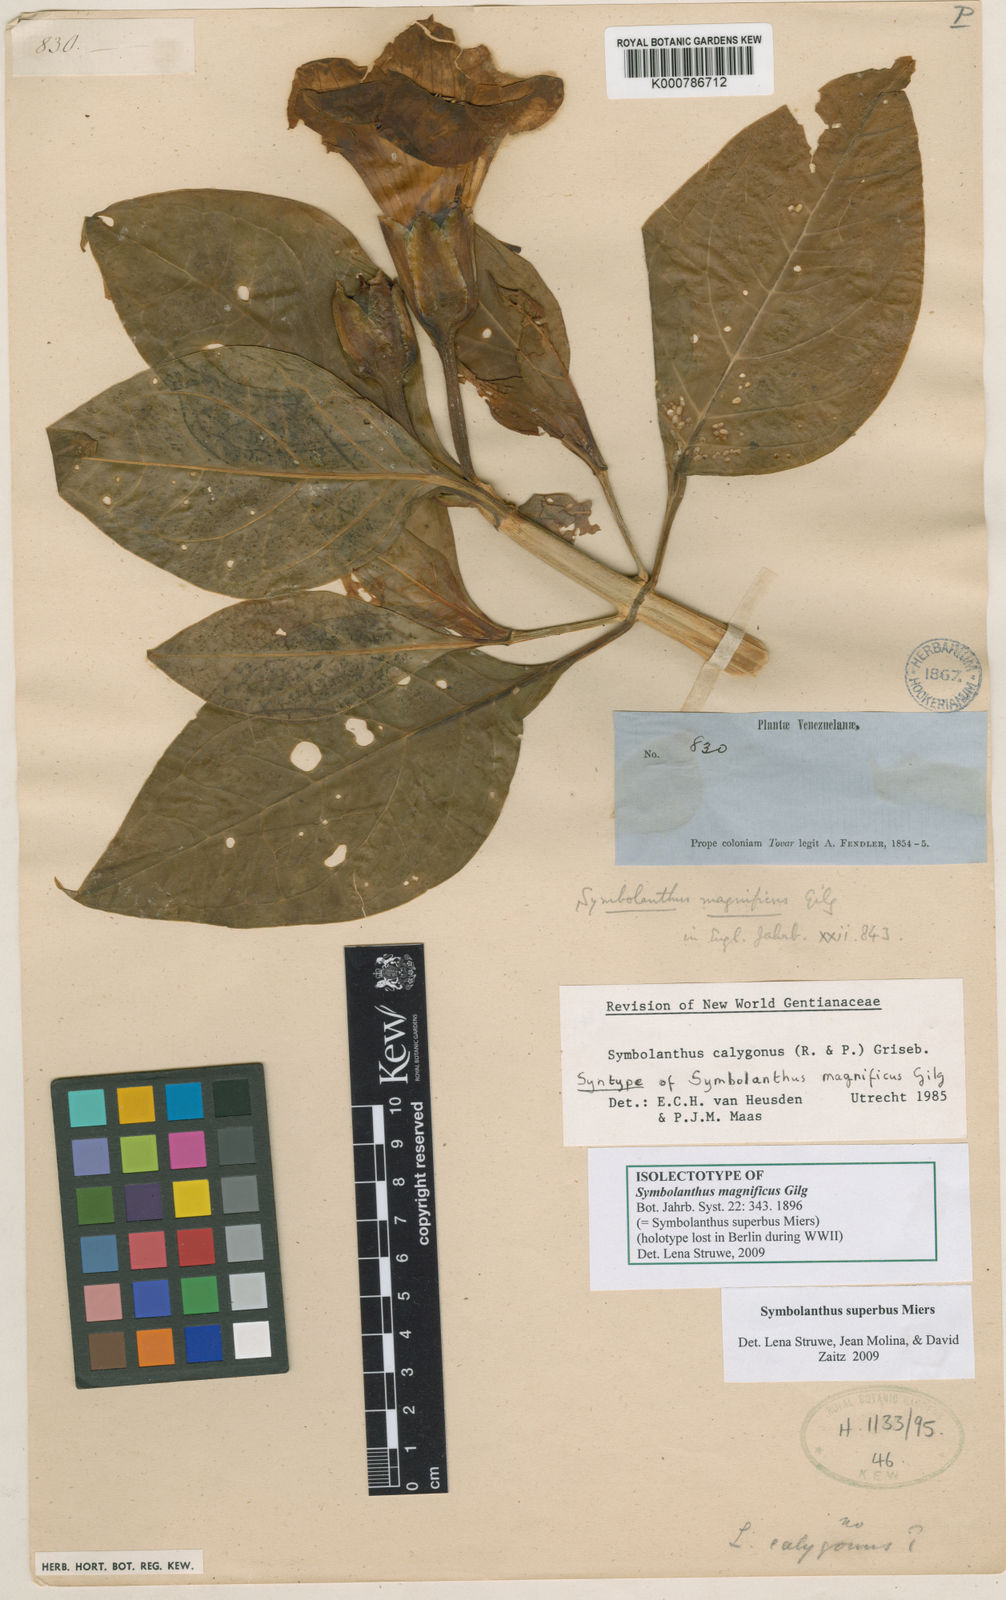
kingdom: Plantae
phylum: Tracheophyta
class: Magnoliopsida
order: Gentianales
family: Gentianaceae
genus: Symbolanthus
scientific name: Symbolanthus superbus
